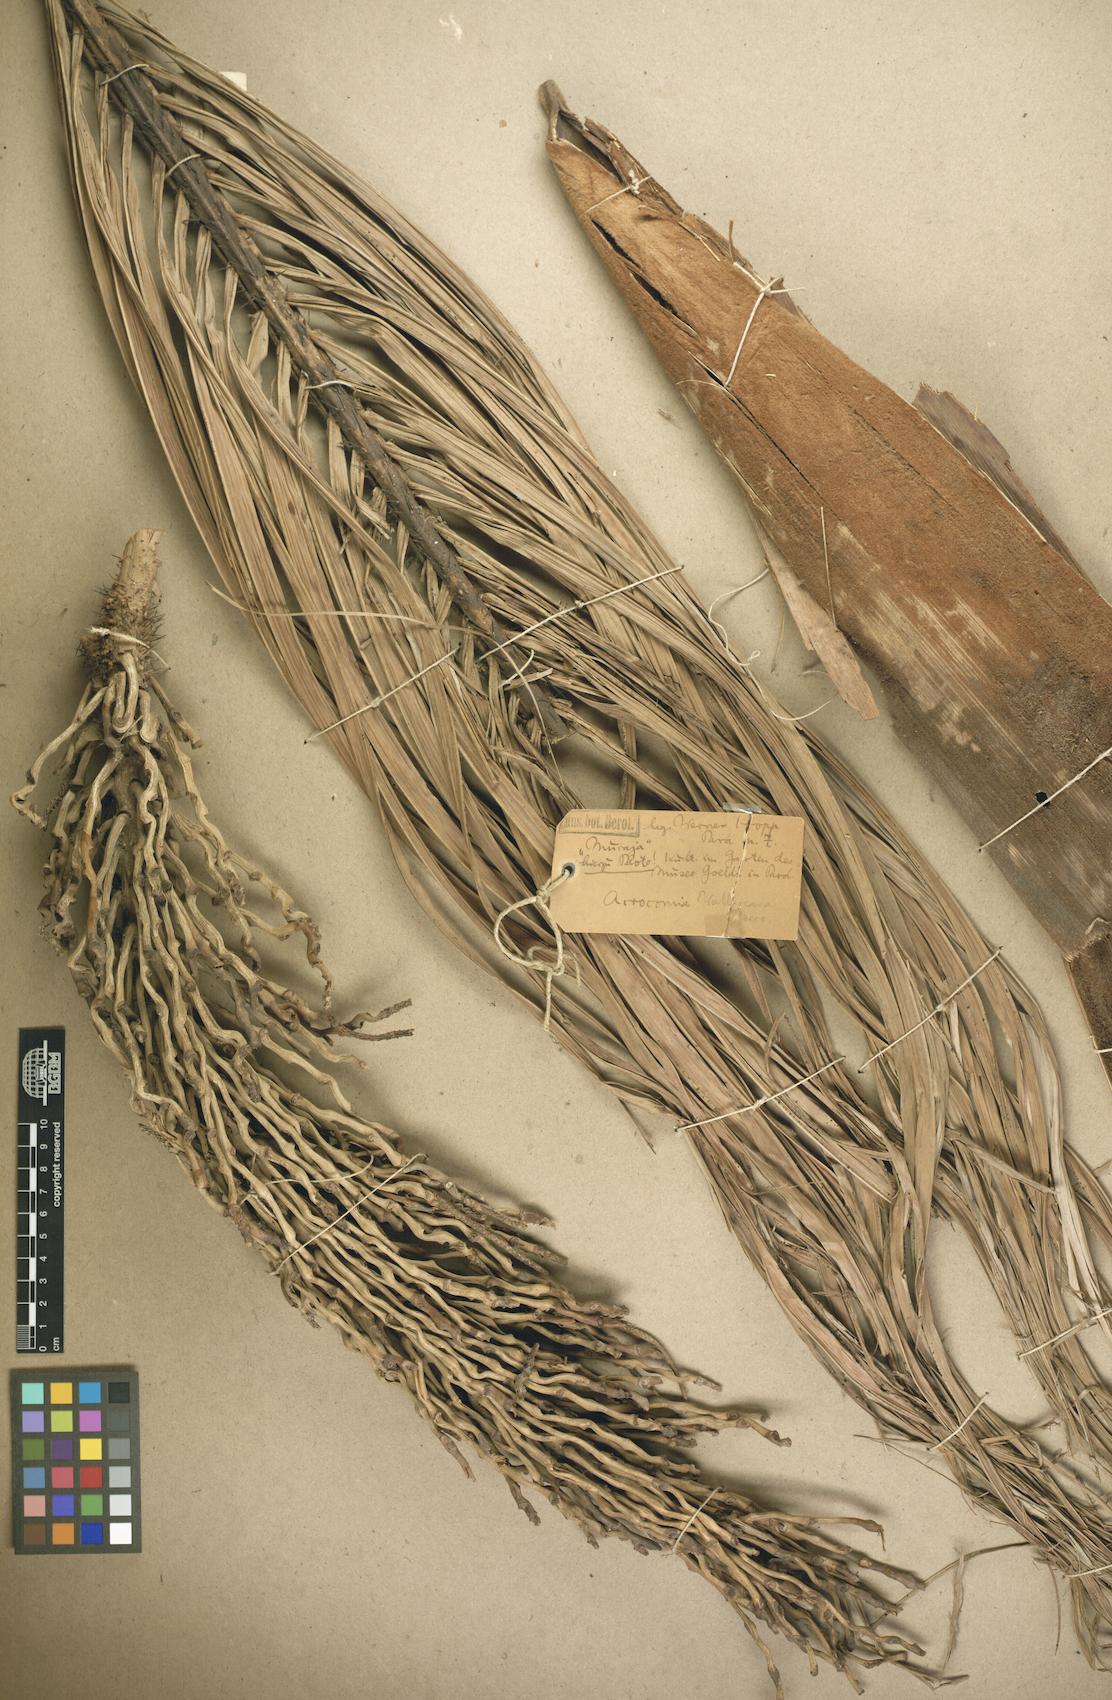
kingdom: Plantae
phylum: Tracheophyta
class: Liliopsida
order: Arecales
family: Arecaceae
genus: Acrocomia
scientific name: Acrocomia aculeata
